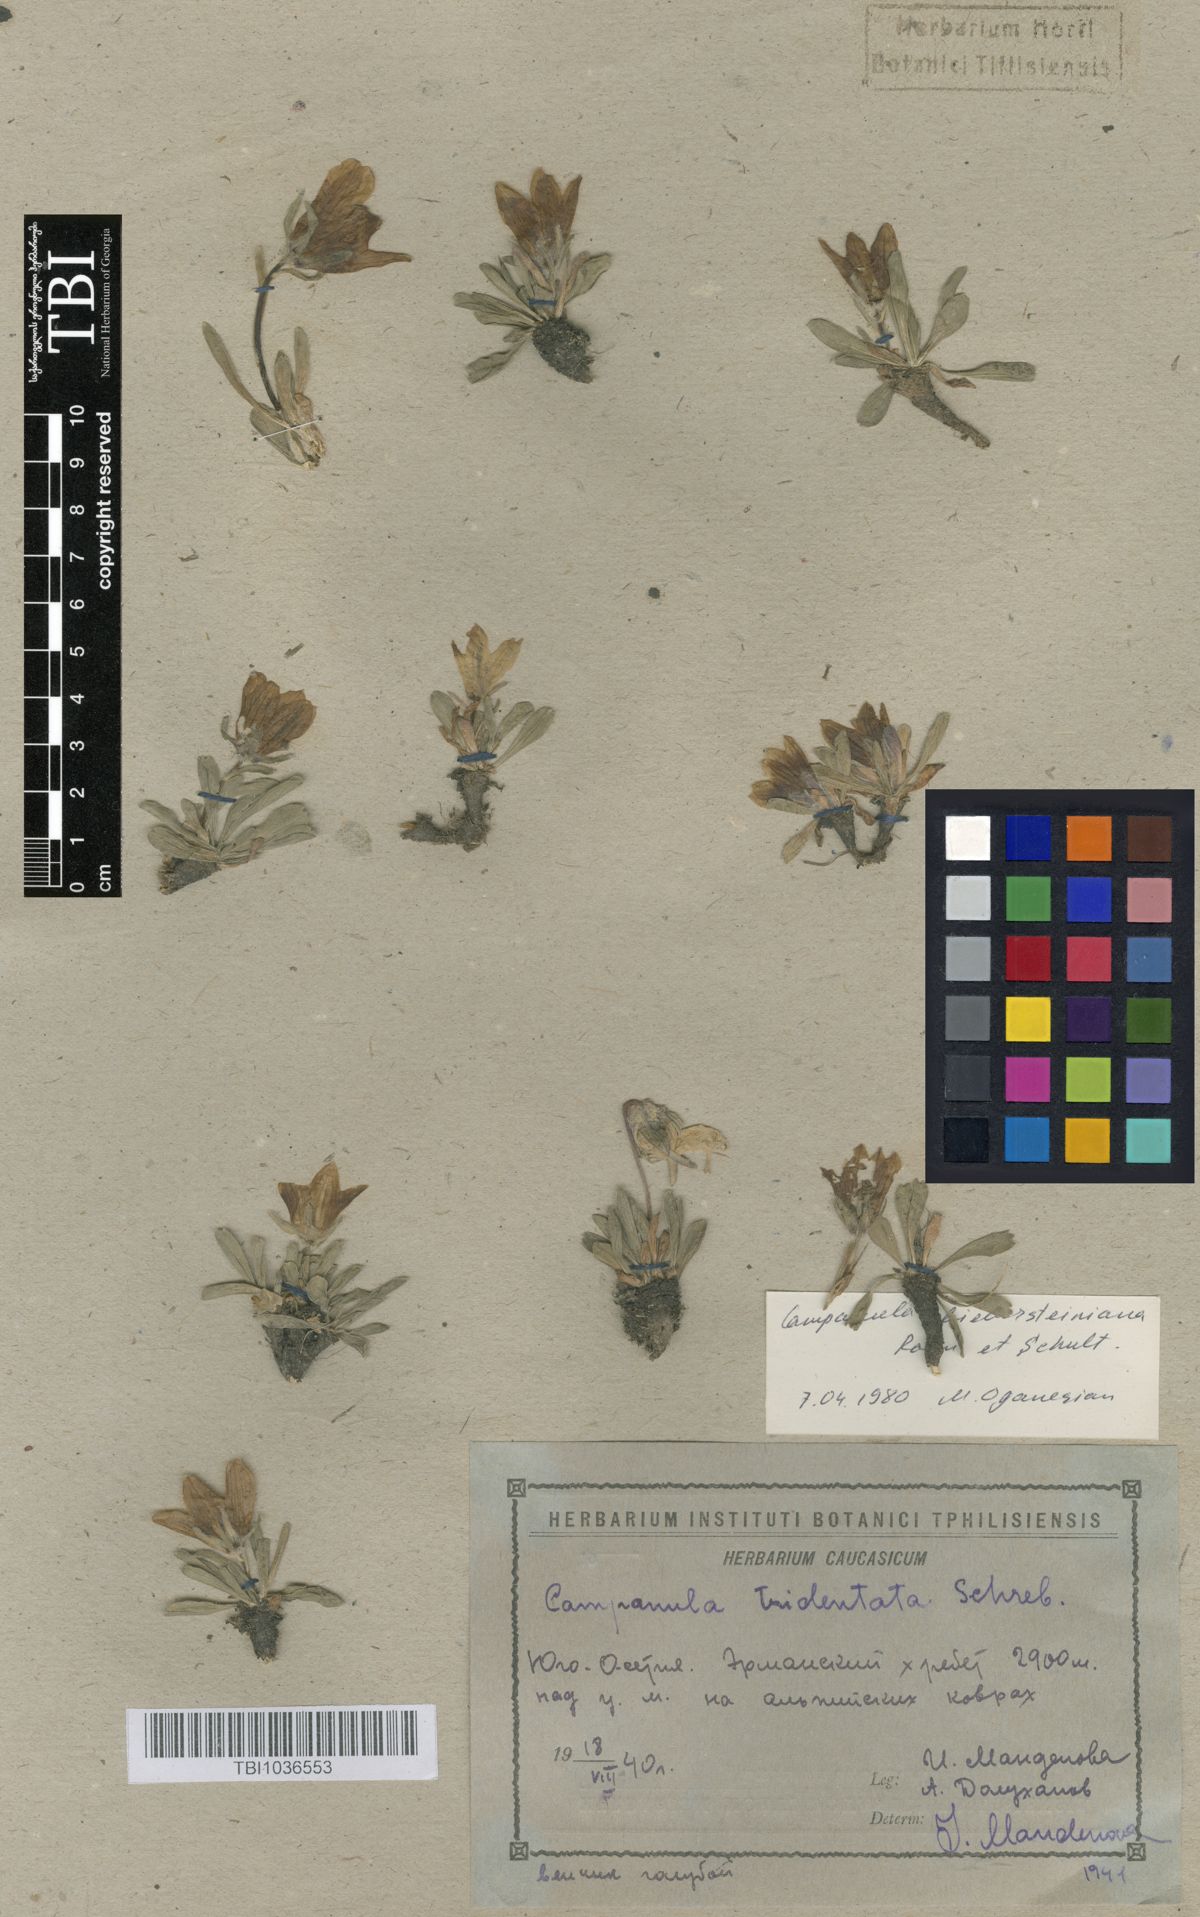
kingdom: Plantae
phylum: Tracheophyta
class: Magnoliopsida
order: Asterales
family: Campanulaceae
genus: Campanula
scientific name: Campanula tridentata
